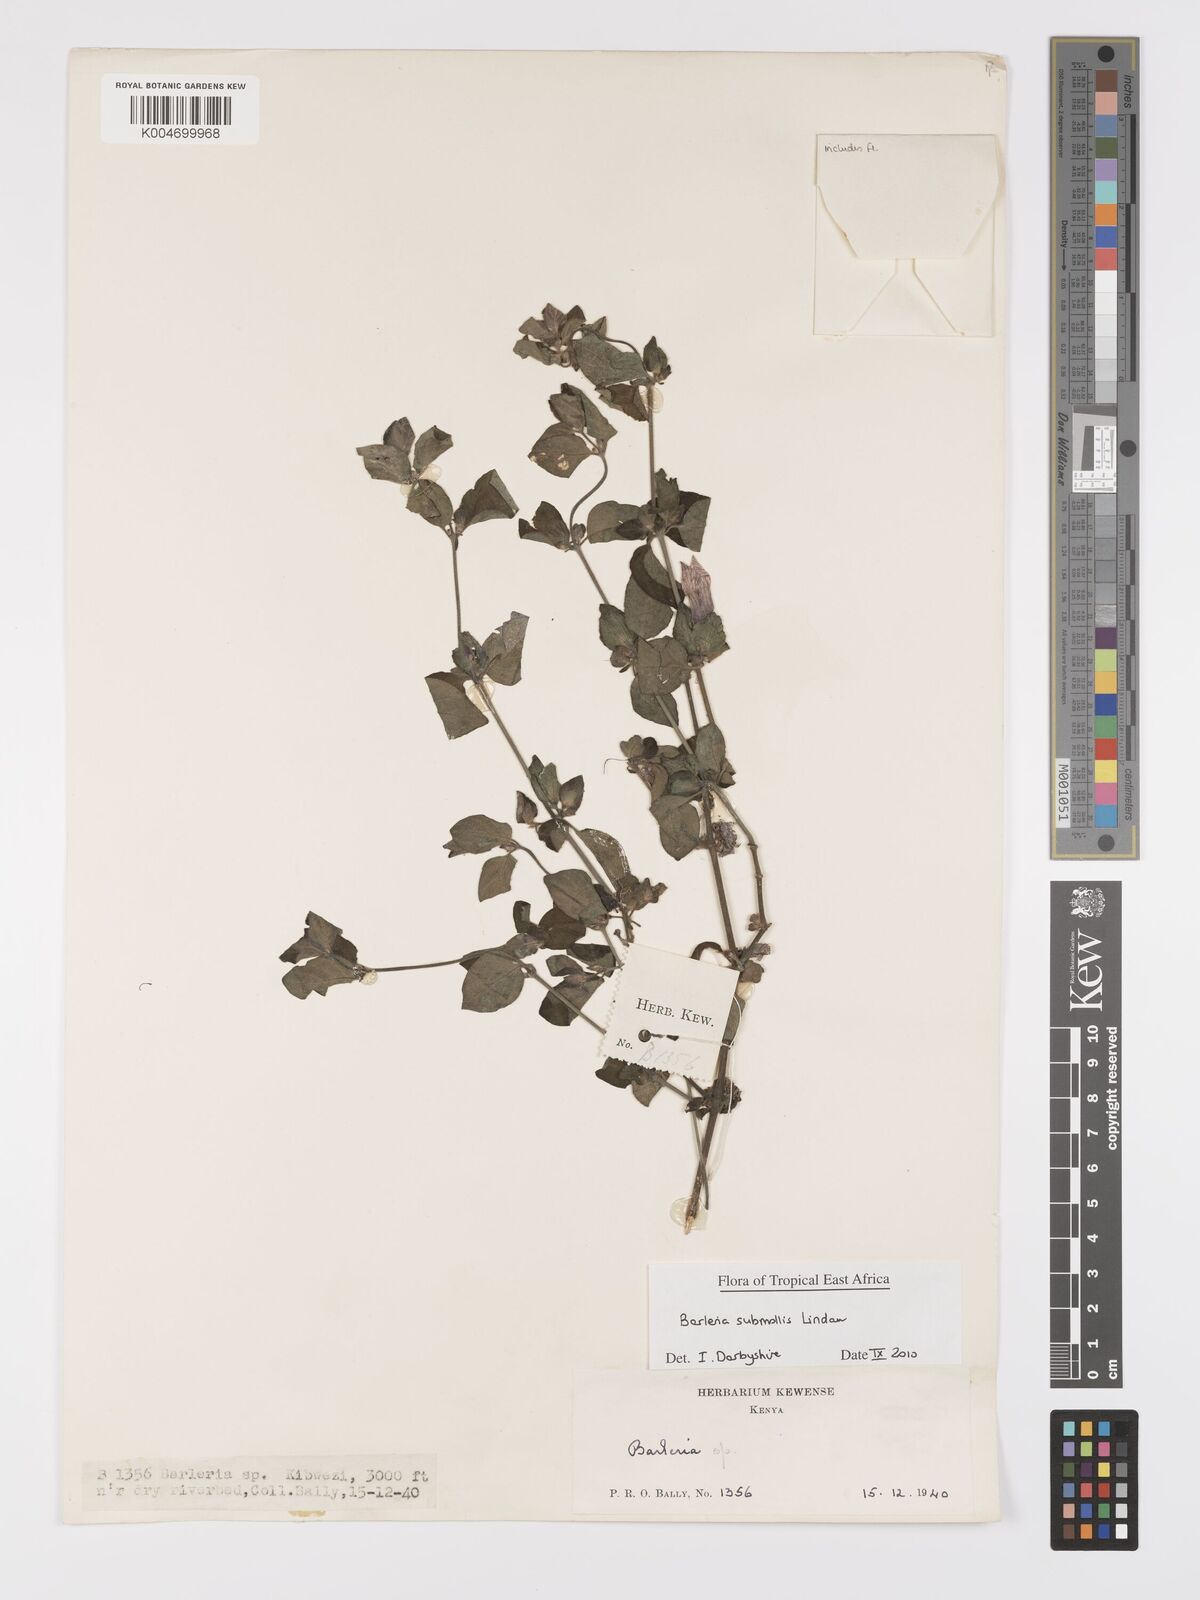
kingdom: Plantae
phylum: Tracheophyta
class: Magnoliopsida
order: Lamiales
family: Acanthaceae
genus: Barleria
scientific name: Barleria submollis
